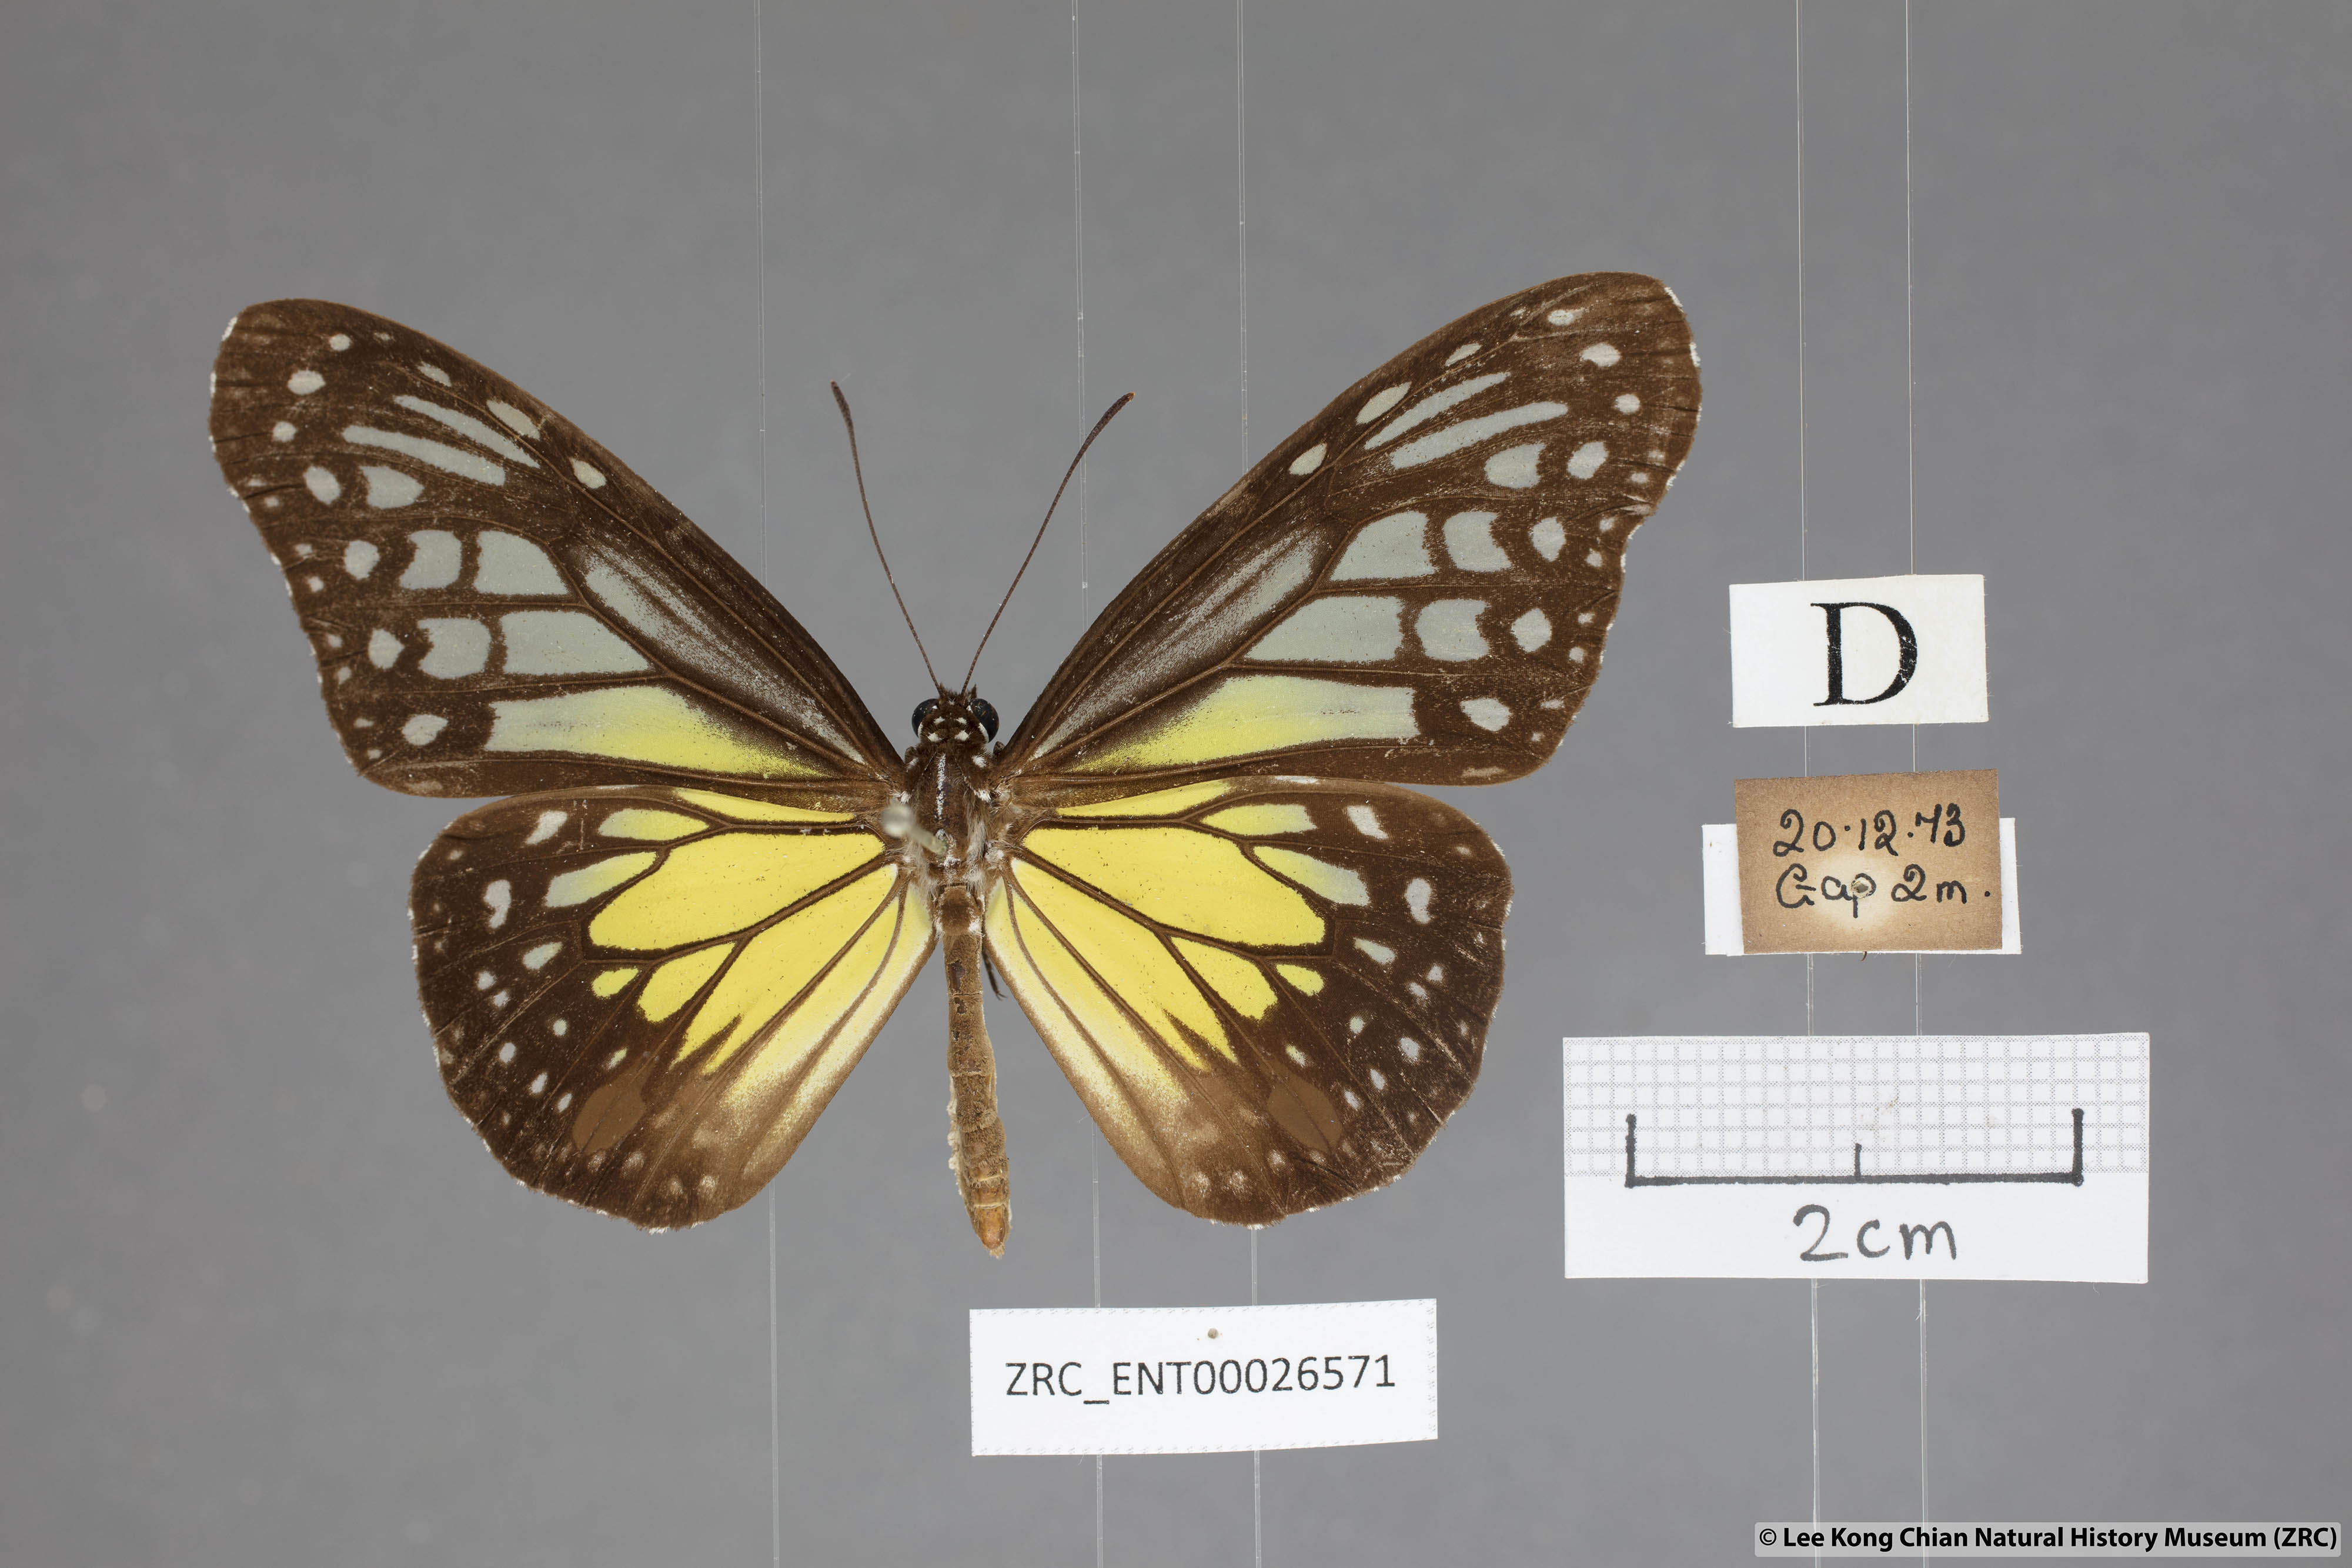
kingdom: Animalia
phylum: Arthropoda
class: Insecta
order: Lepidoptera
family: Nymphalidae
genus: Parantica
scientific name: Parantica aspasia
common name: Yellow glassy tiger
